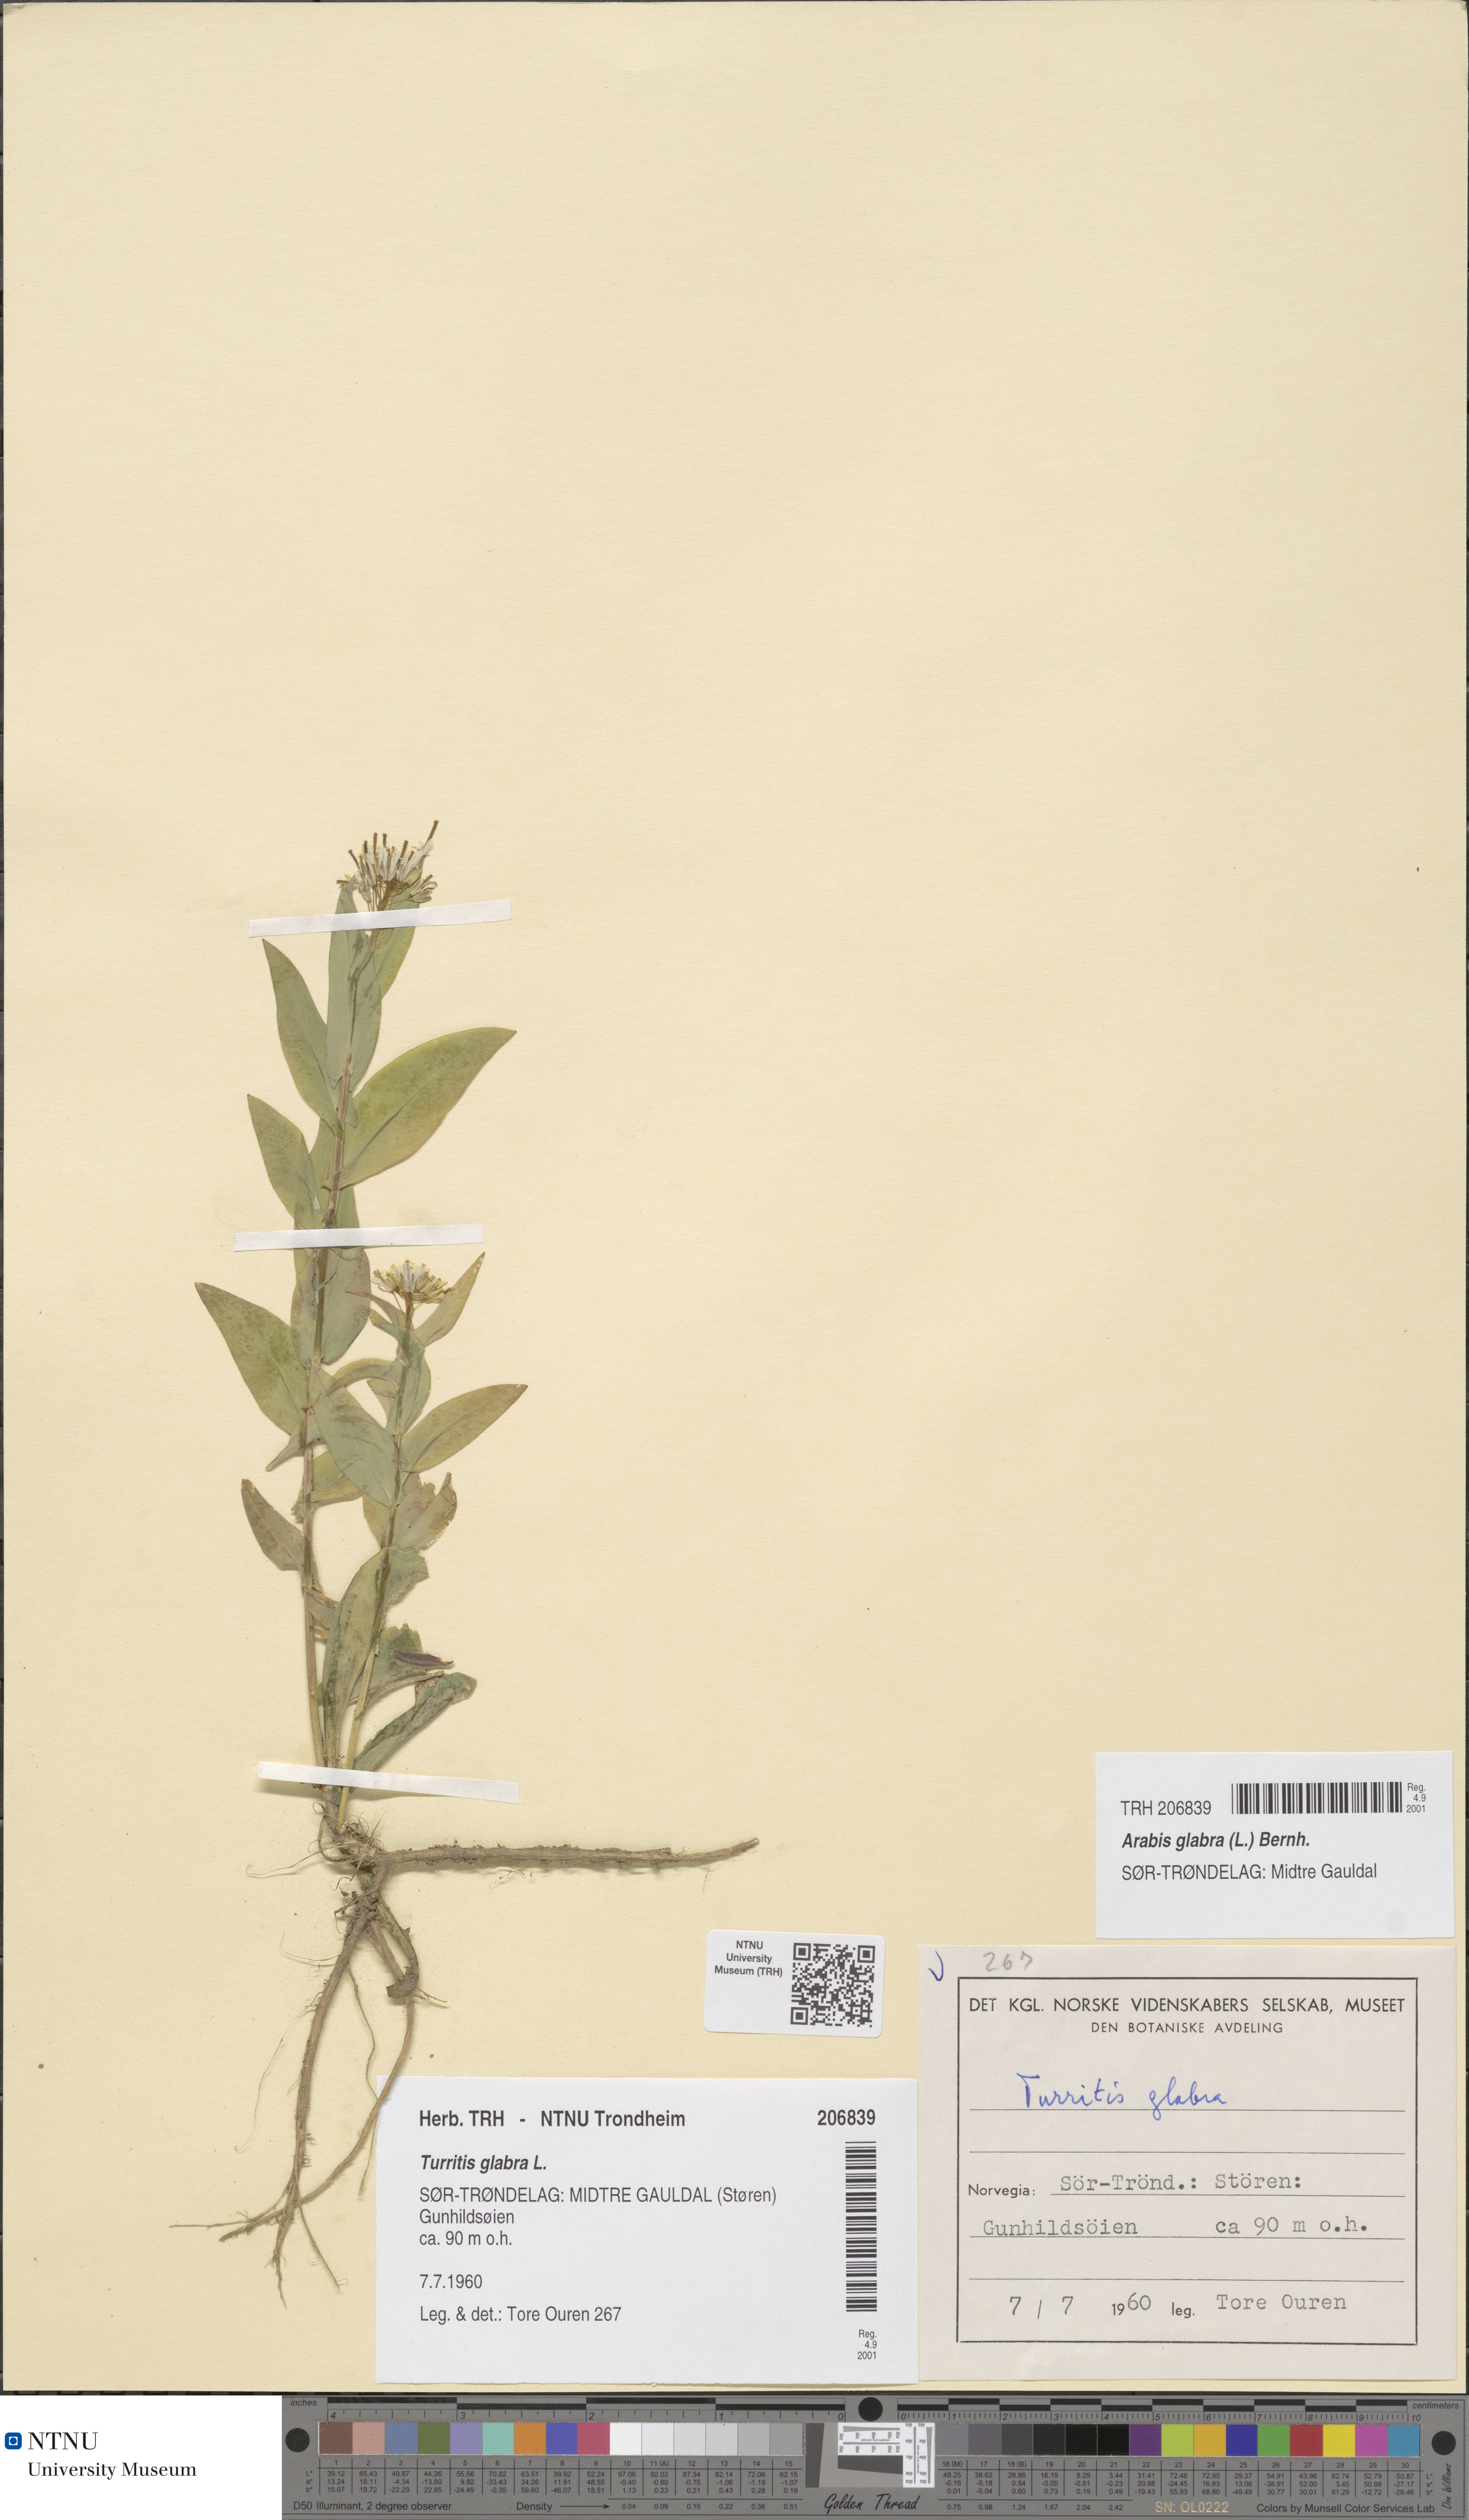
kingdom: Plantae
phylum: Tracheophyta
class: Magnoliopsida
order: Brassicales
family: Brassicaceae
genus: Turritis
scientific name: Turritis glabra
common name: Tower rockcress
